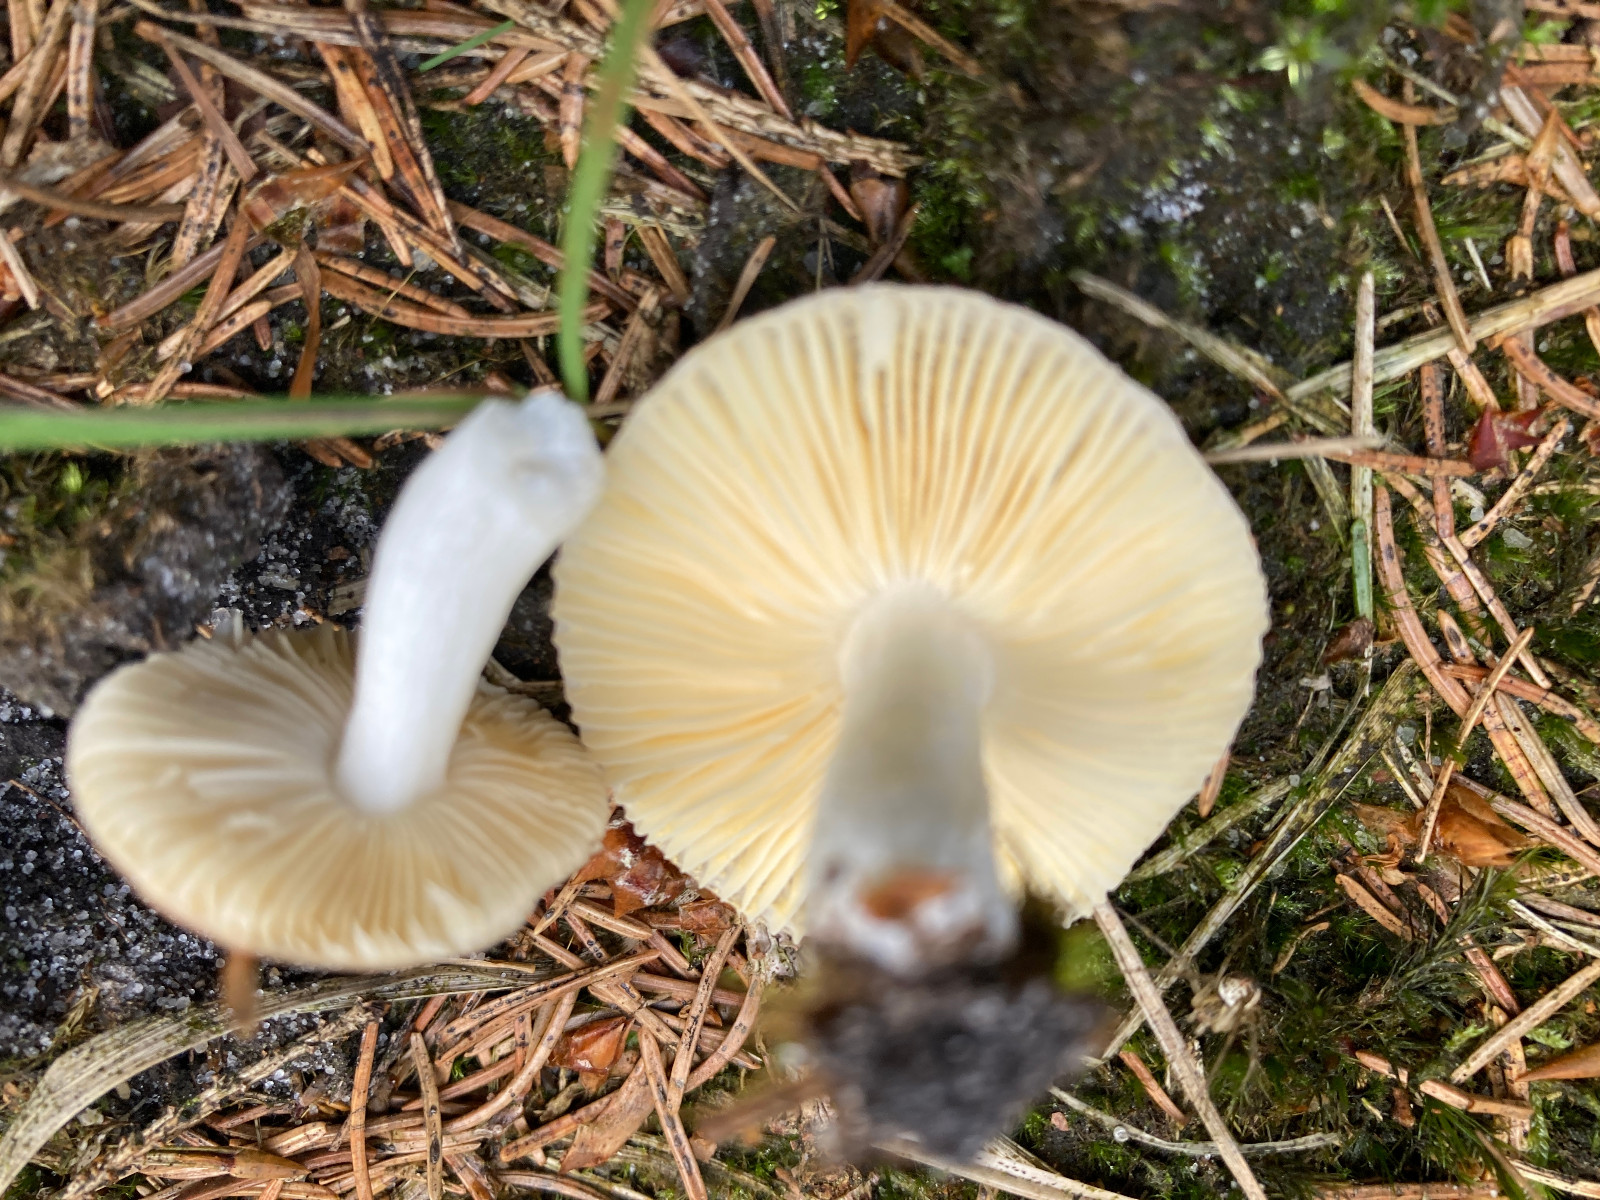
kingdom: Fungi
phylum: Basidiomycota
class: Agaricomycetes
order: Russulales
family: Russulaceae
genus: Russula
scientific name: Russula nauseosa
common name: spinkel skørhat
